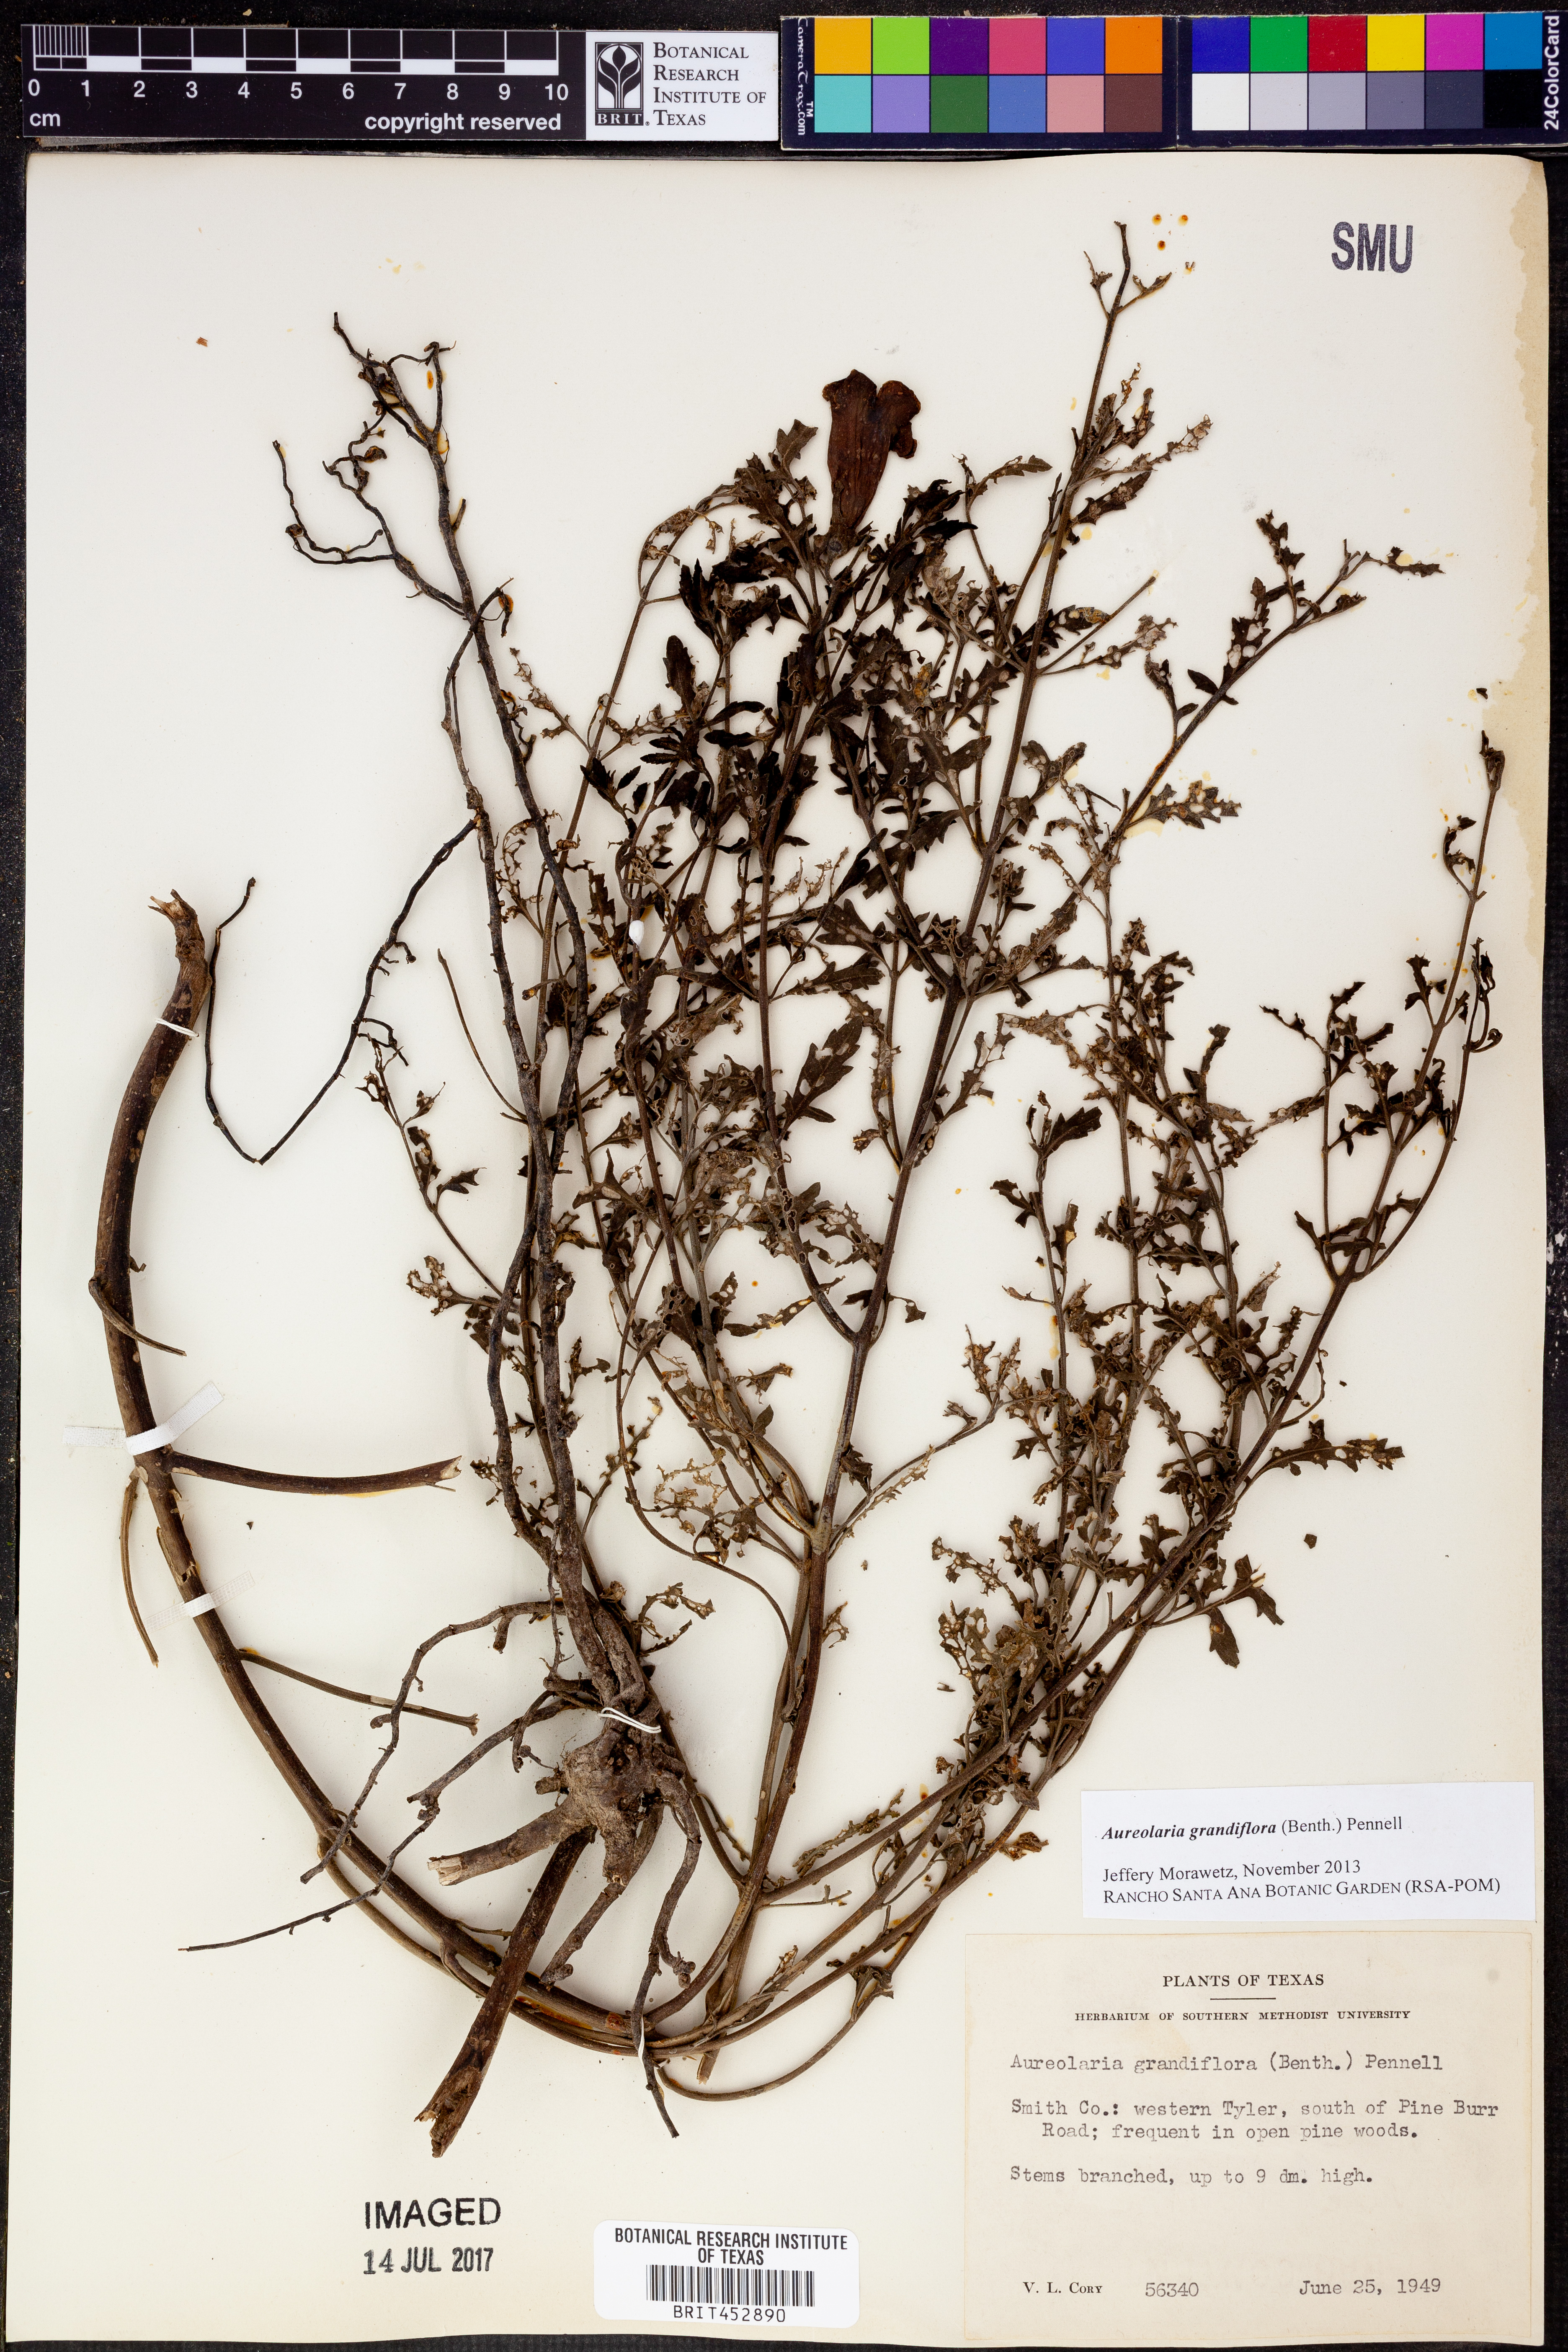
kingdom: Plantae
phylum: Tracheophyta
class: Magnoliopsida
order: Lamiales
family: Orobanchaceae
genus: Aureolaria
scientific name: Aureolaria grandiflora
